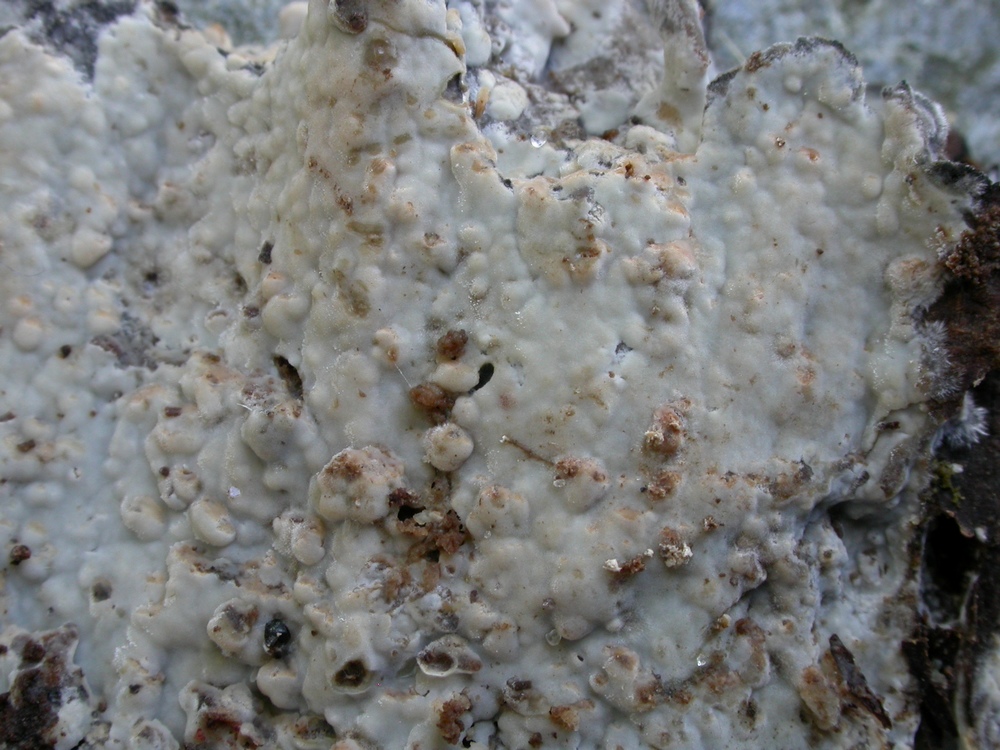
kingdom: Fungi
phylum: Basidiomycota
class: Agaricomycetes
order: Russulales
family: Peniophoraceae
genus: Gloiothele
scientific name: Gloiothele lactescens
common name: bitter olieskind
